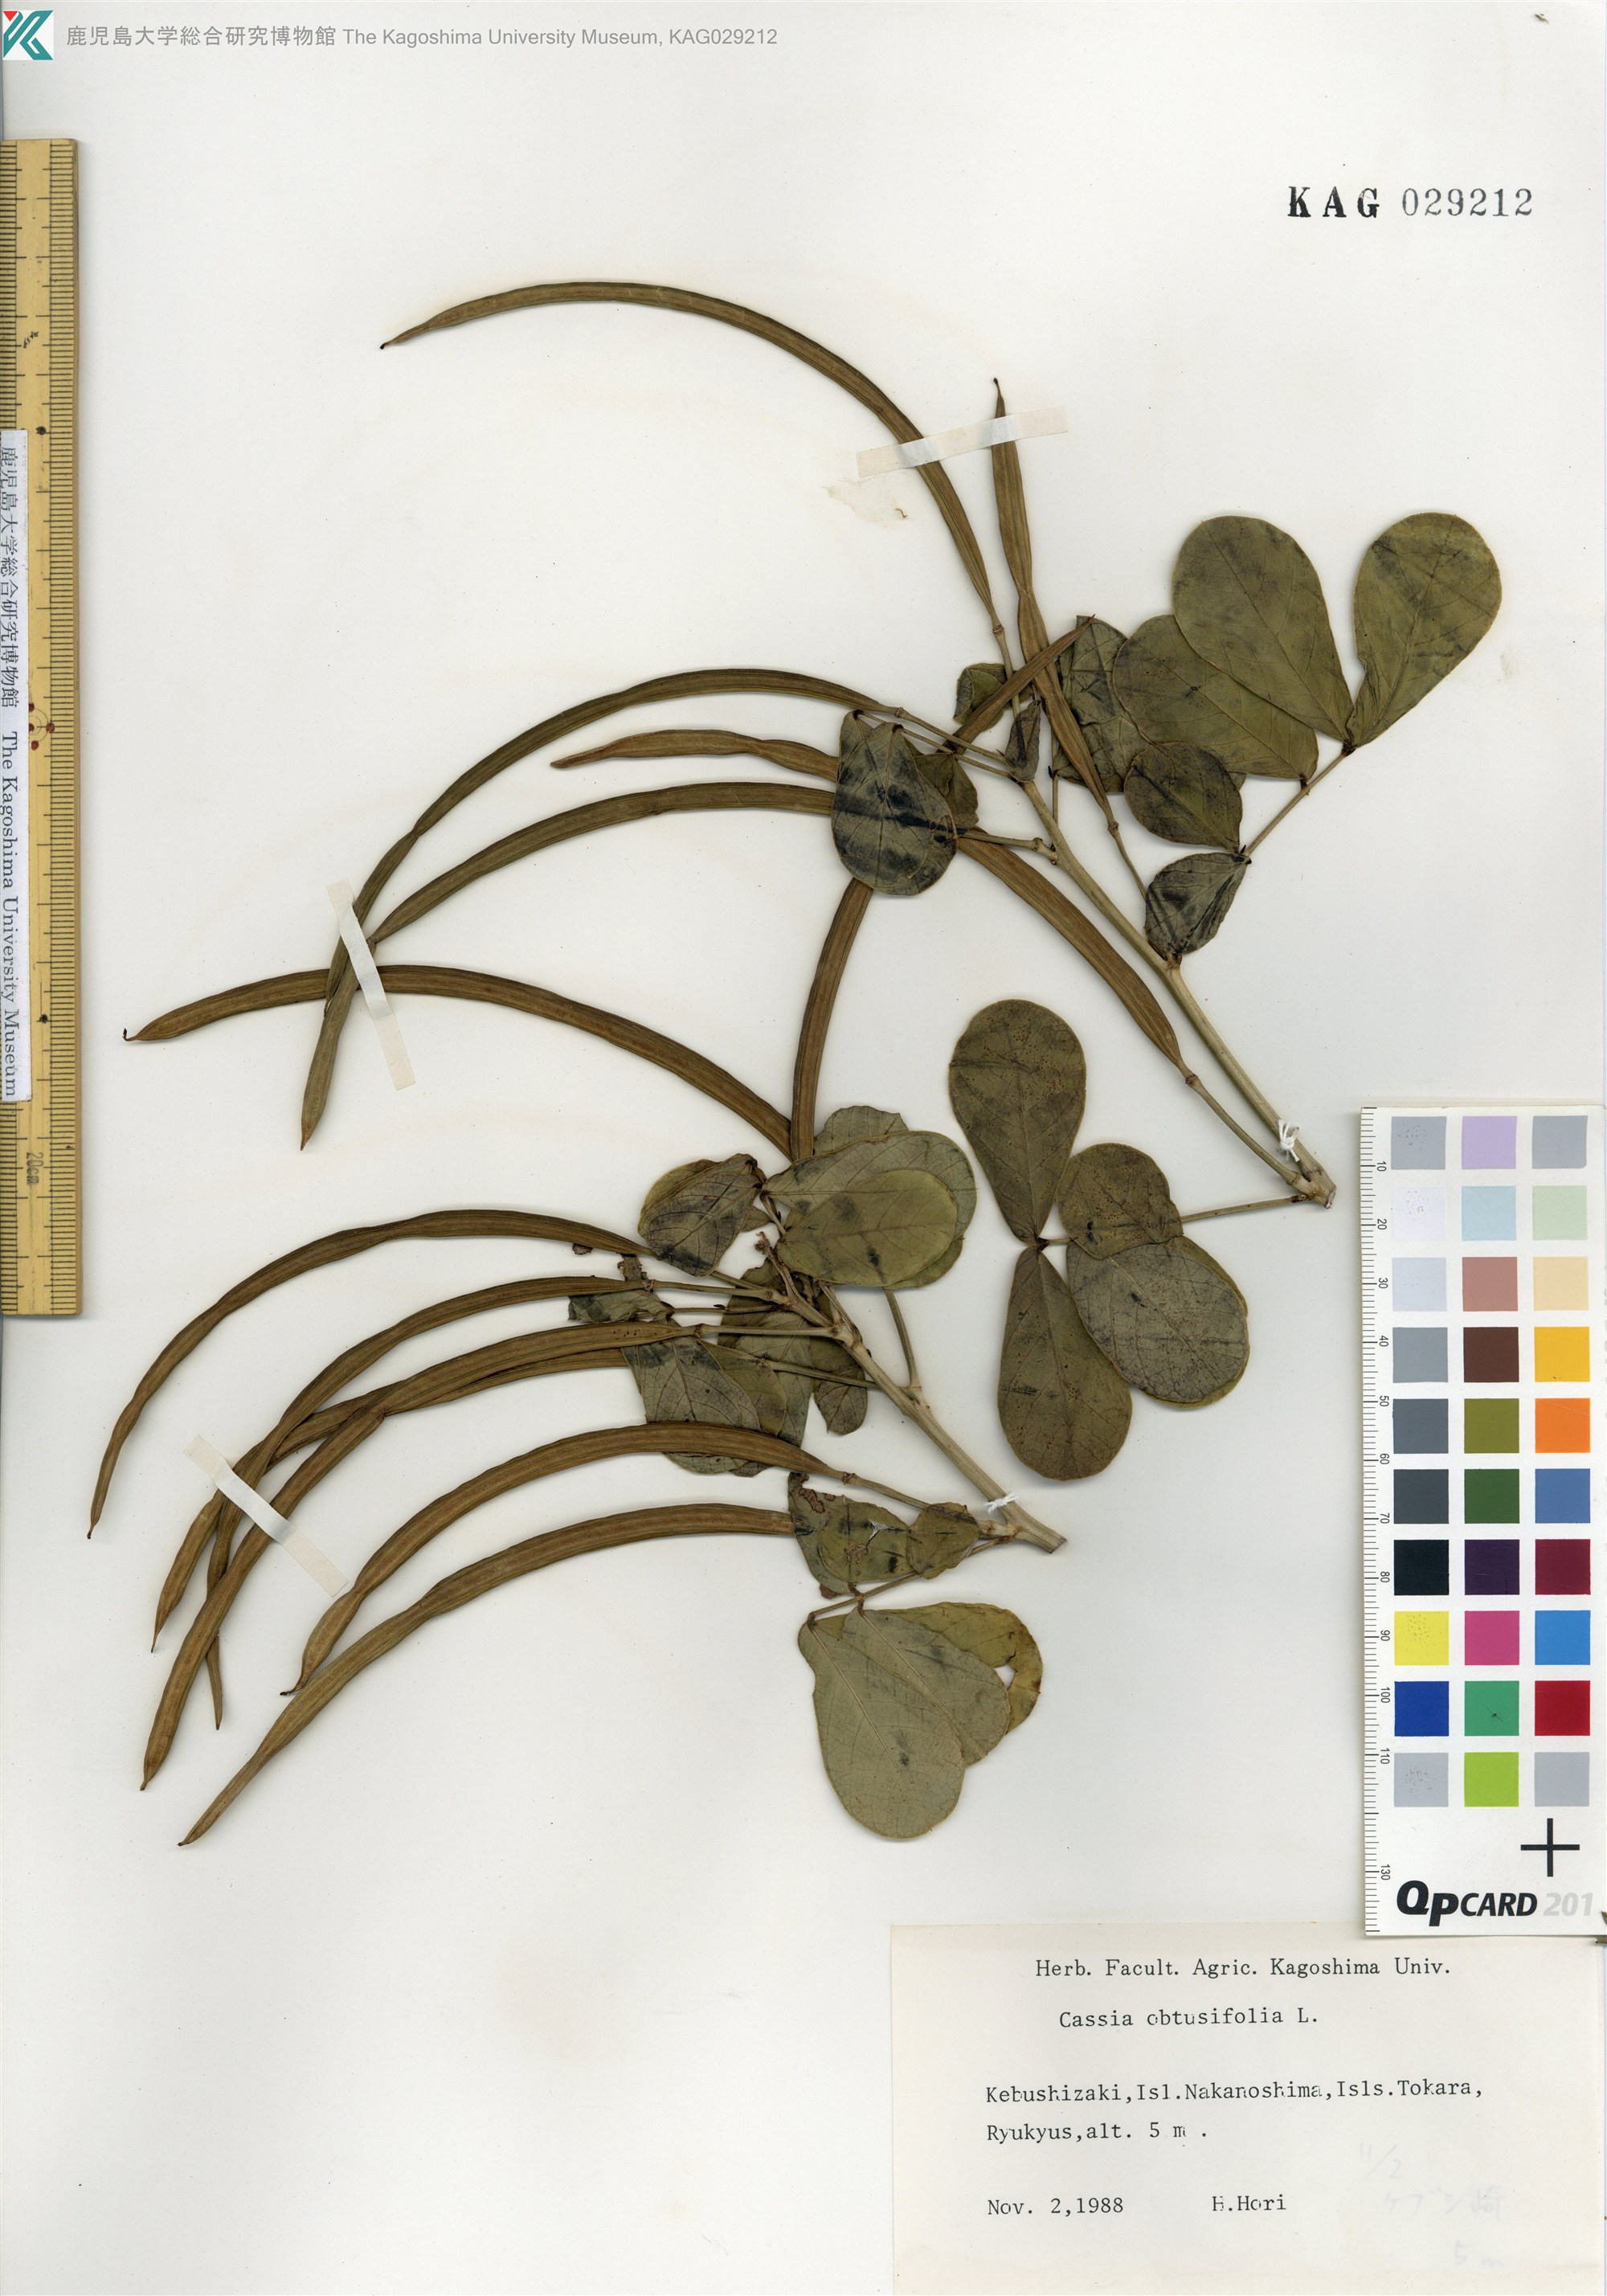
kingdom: Plantae
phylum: Tracheophyta
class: Magnoliopsida
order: Fabales
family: Fabaceae
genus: Senna
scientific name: Senna obtusifolia
